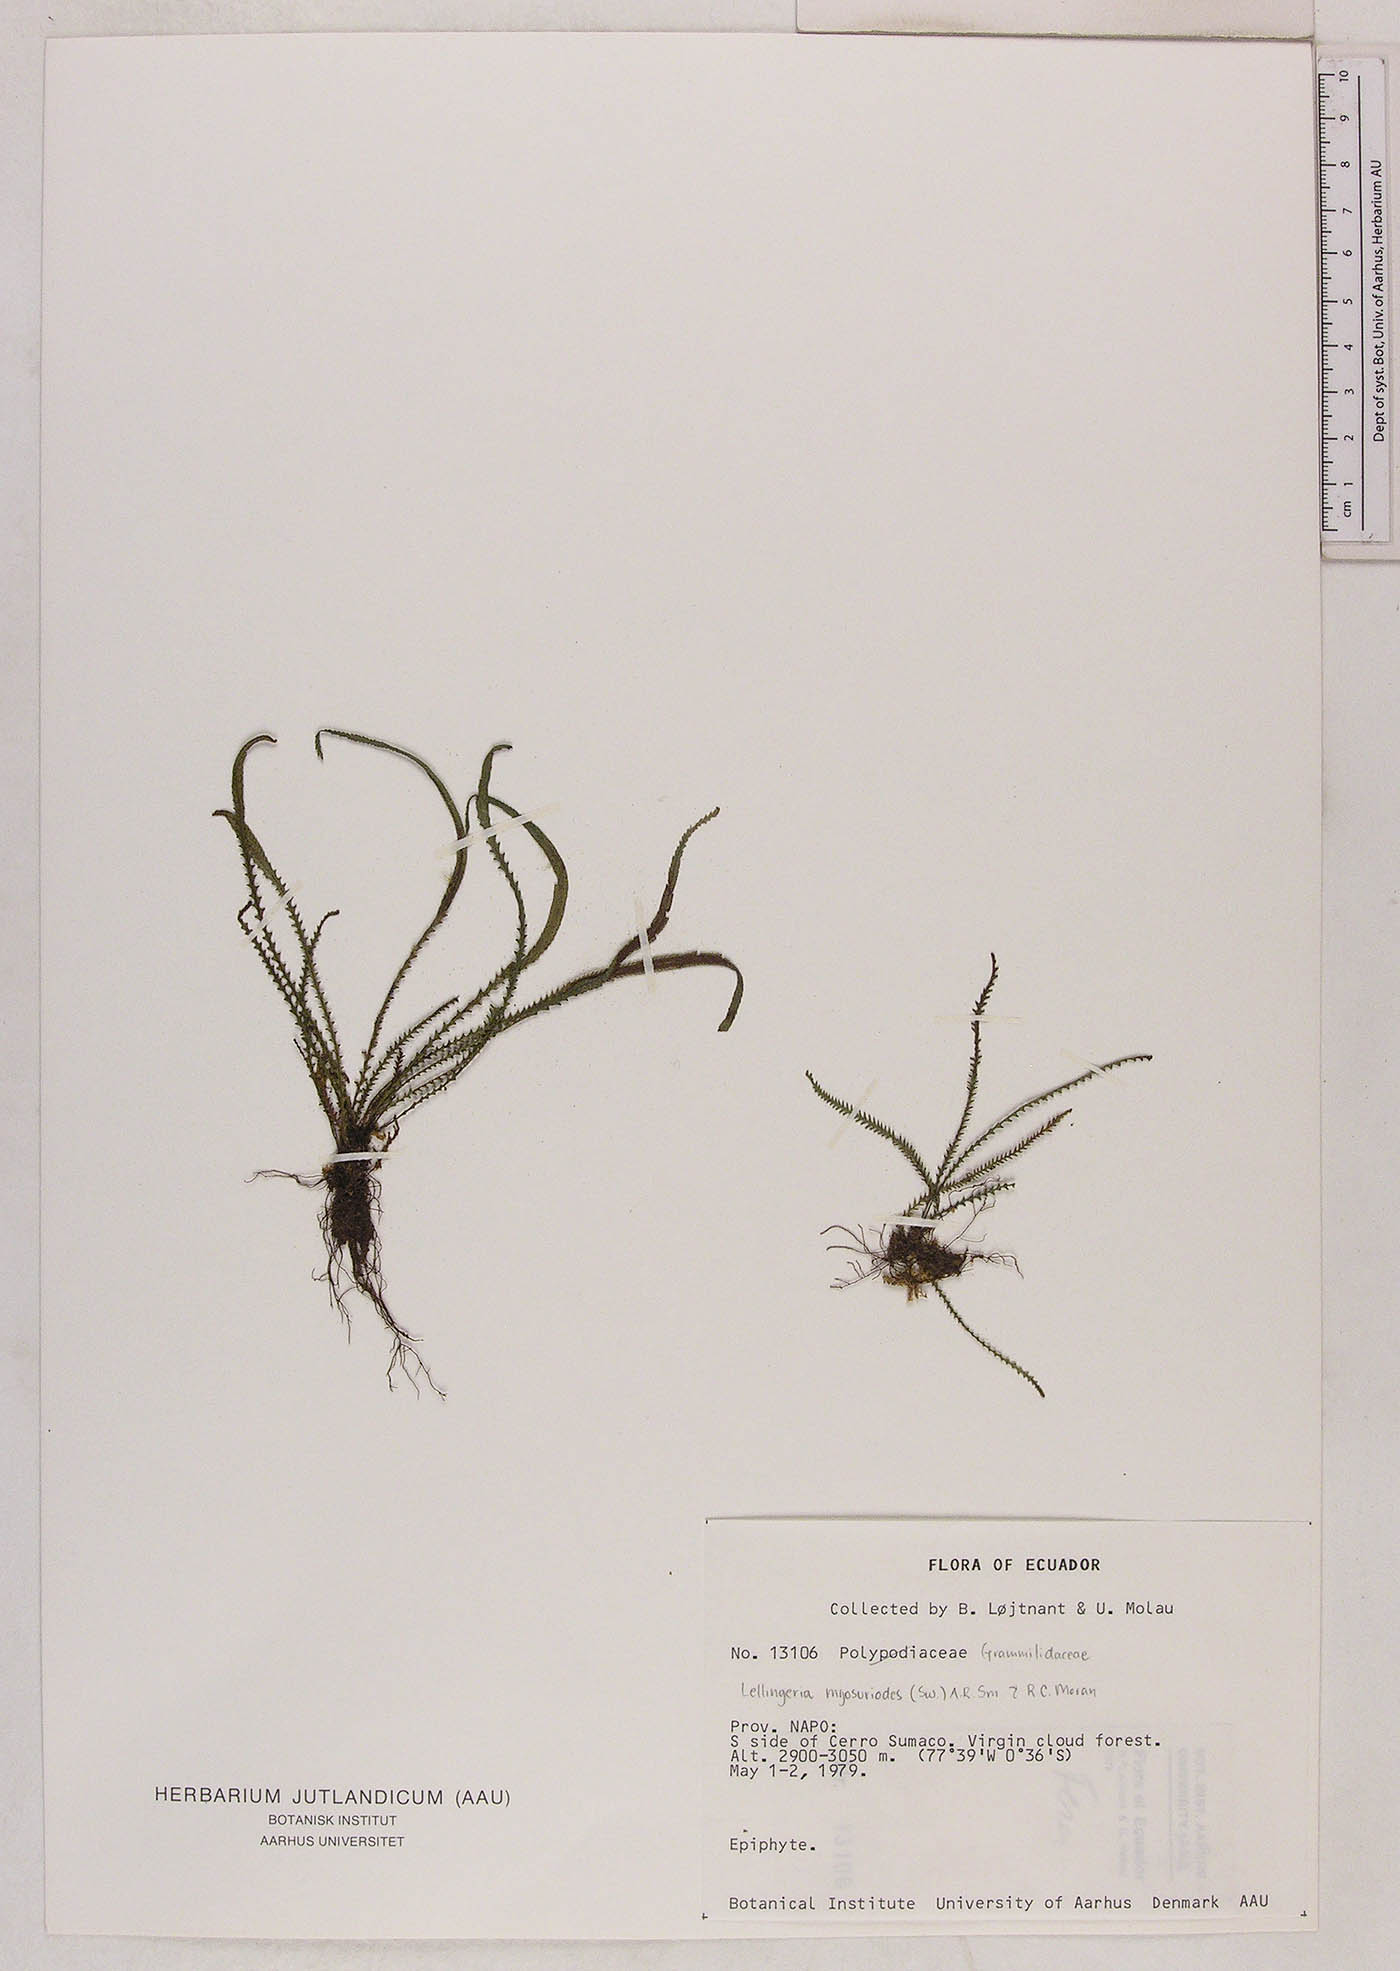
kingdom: Plantae
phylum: Tracheophyta
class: Polypodiopsida
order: Polypodiales
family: Polypodiaceae
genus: Stenogrammitis
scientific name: Stenogrammitis jamesonii
